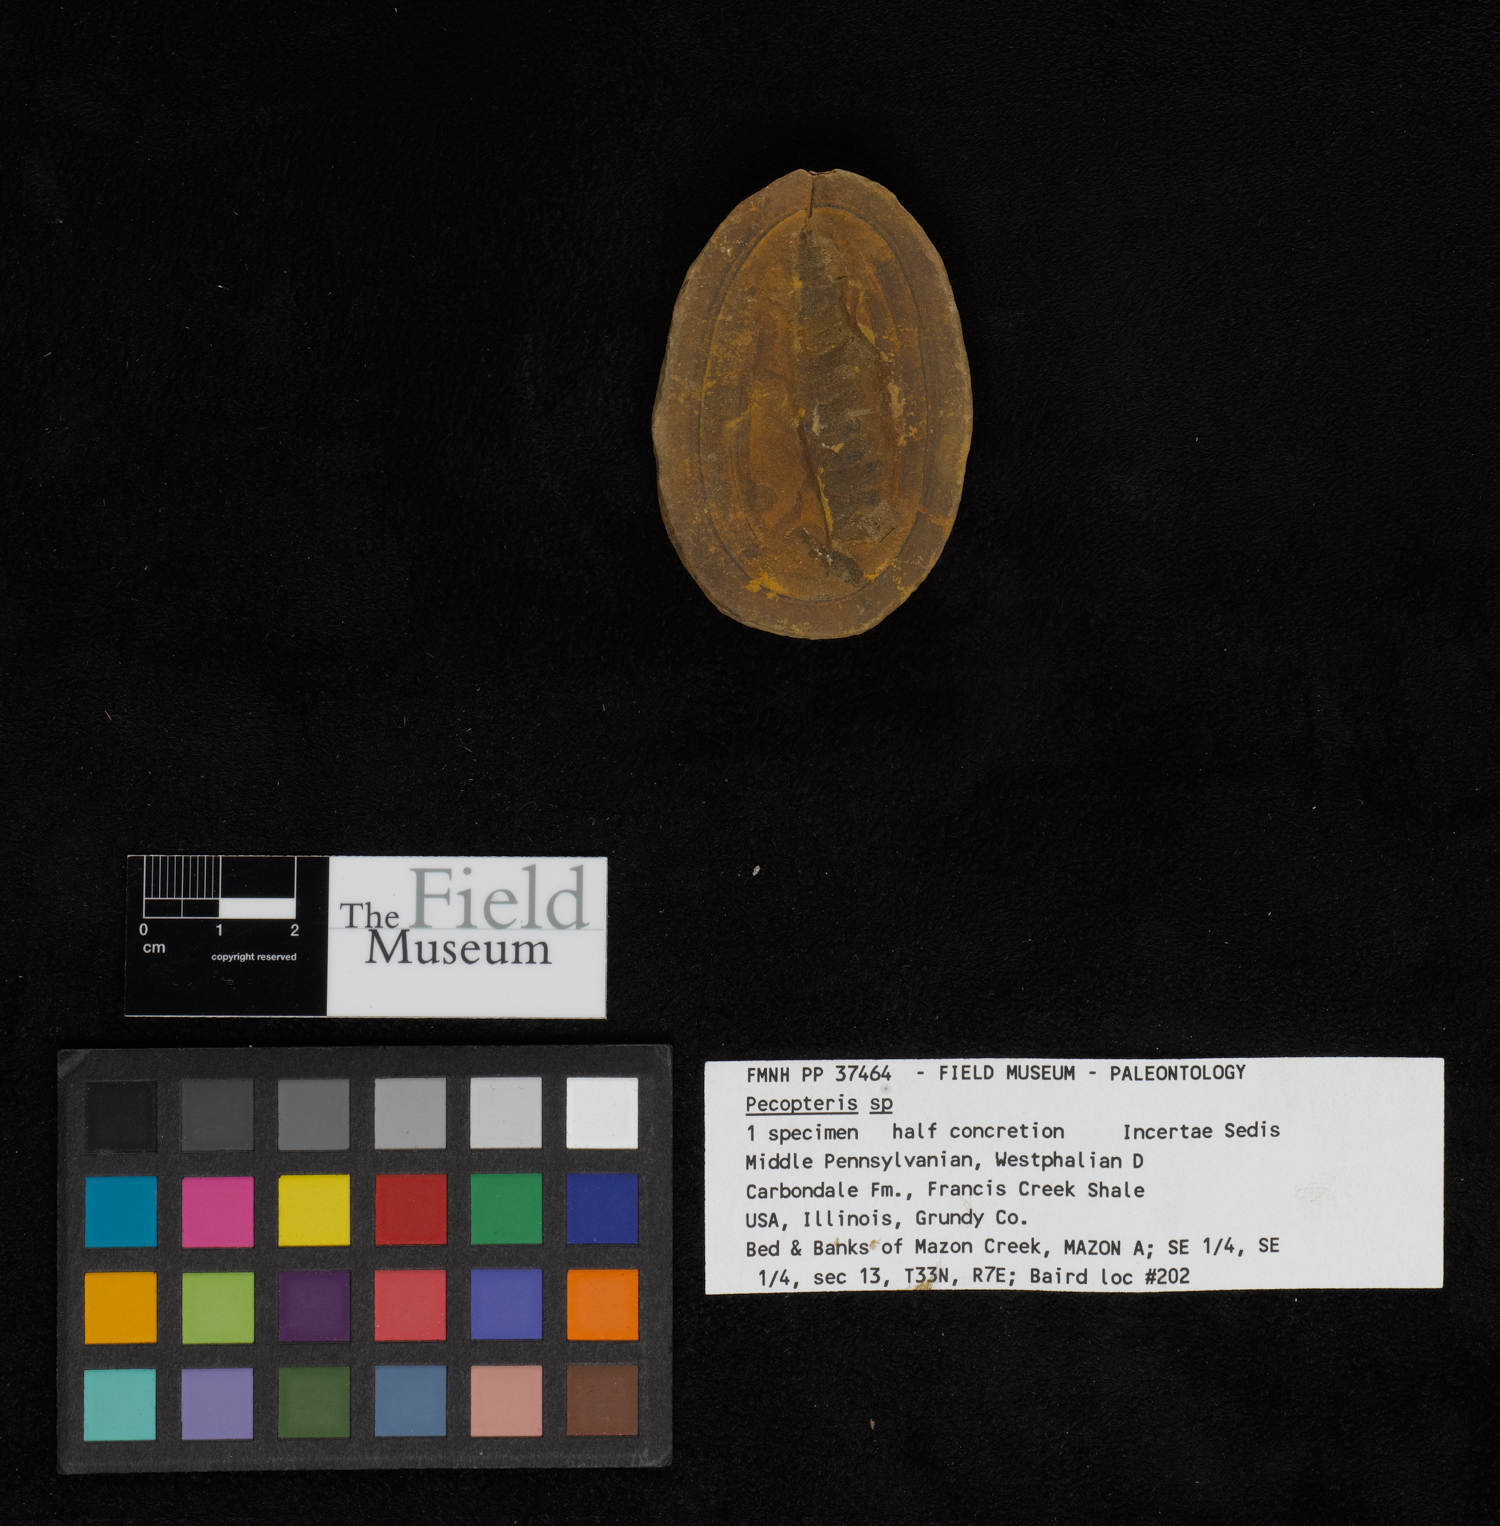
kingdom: Plantae
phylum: Tracheophyta
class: Polypodiopsida
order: Marattiales
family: Asterothecaceae
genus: Pecopteris
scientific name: Pecopteris
